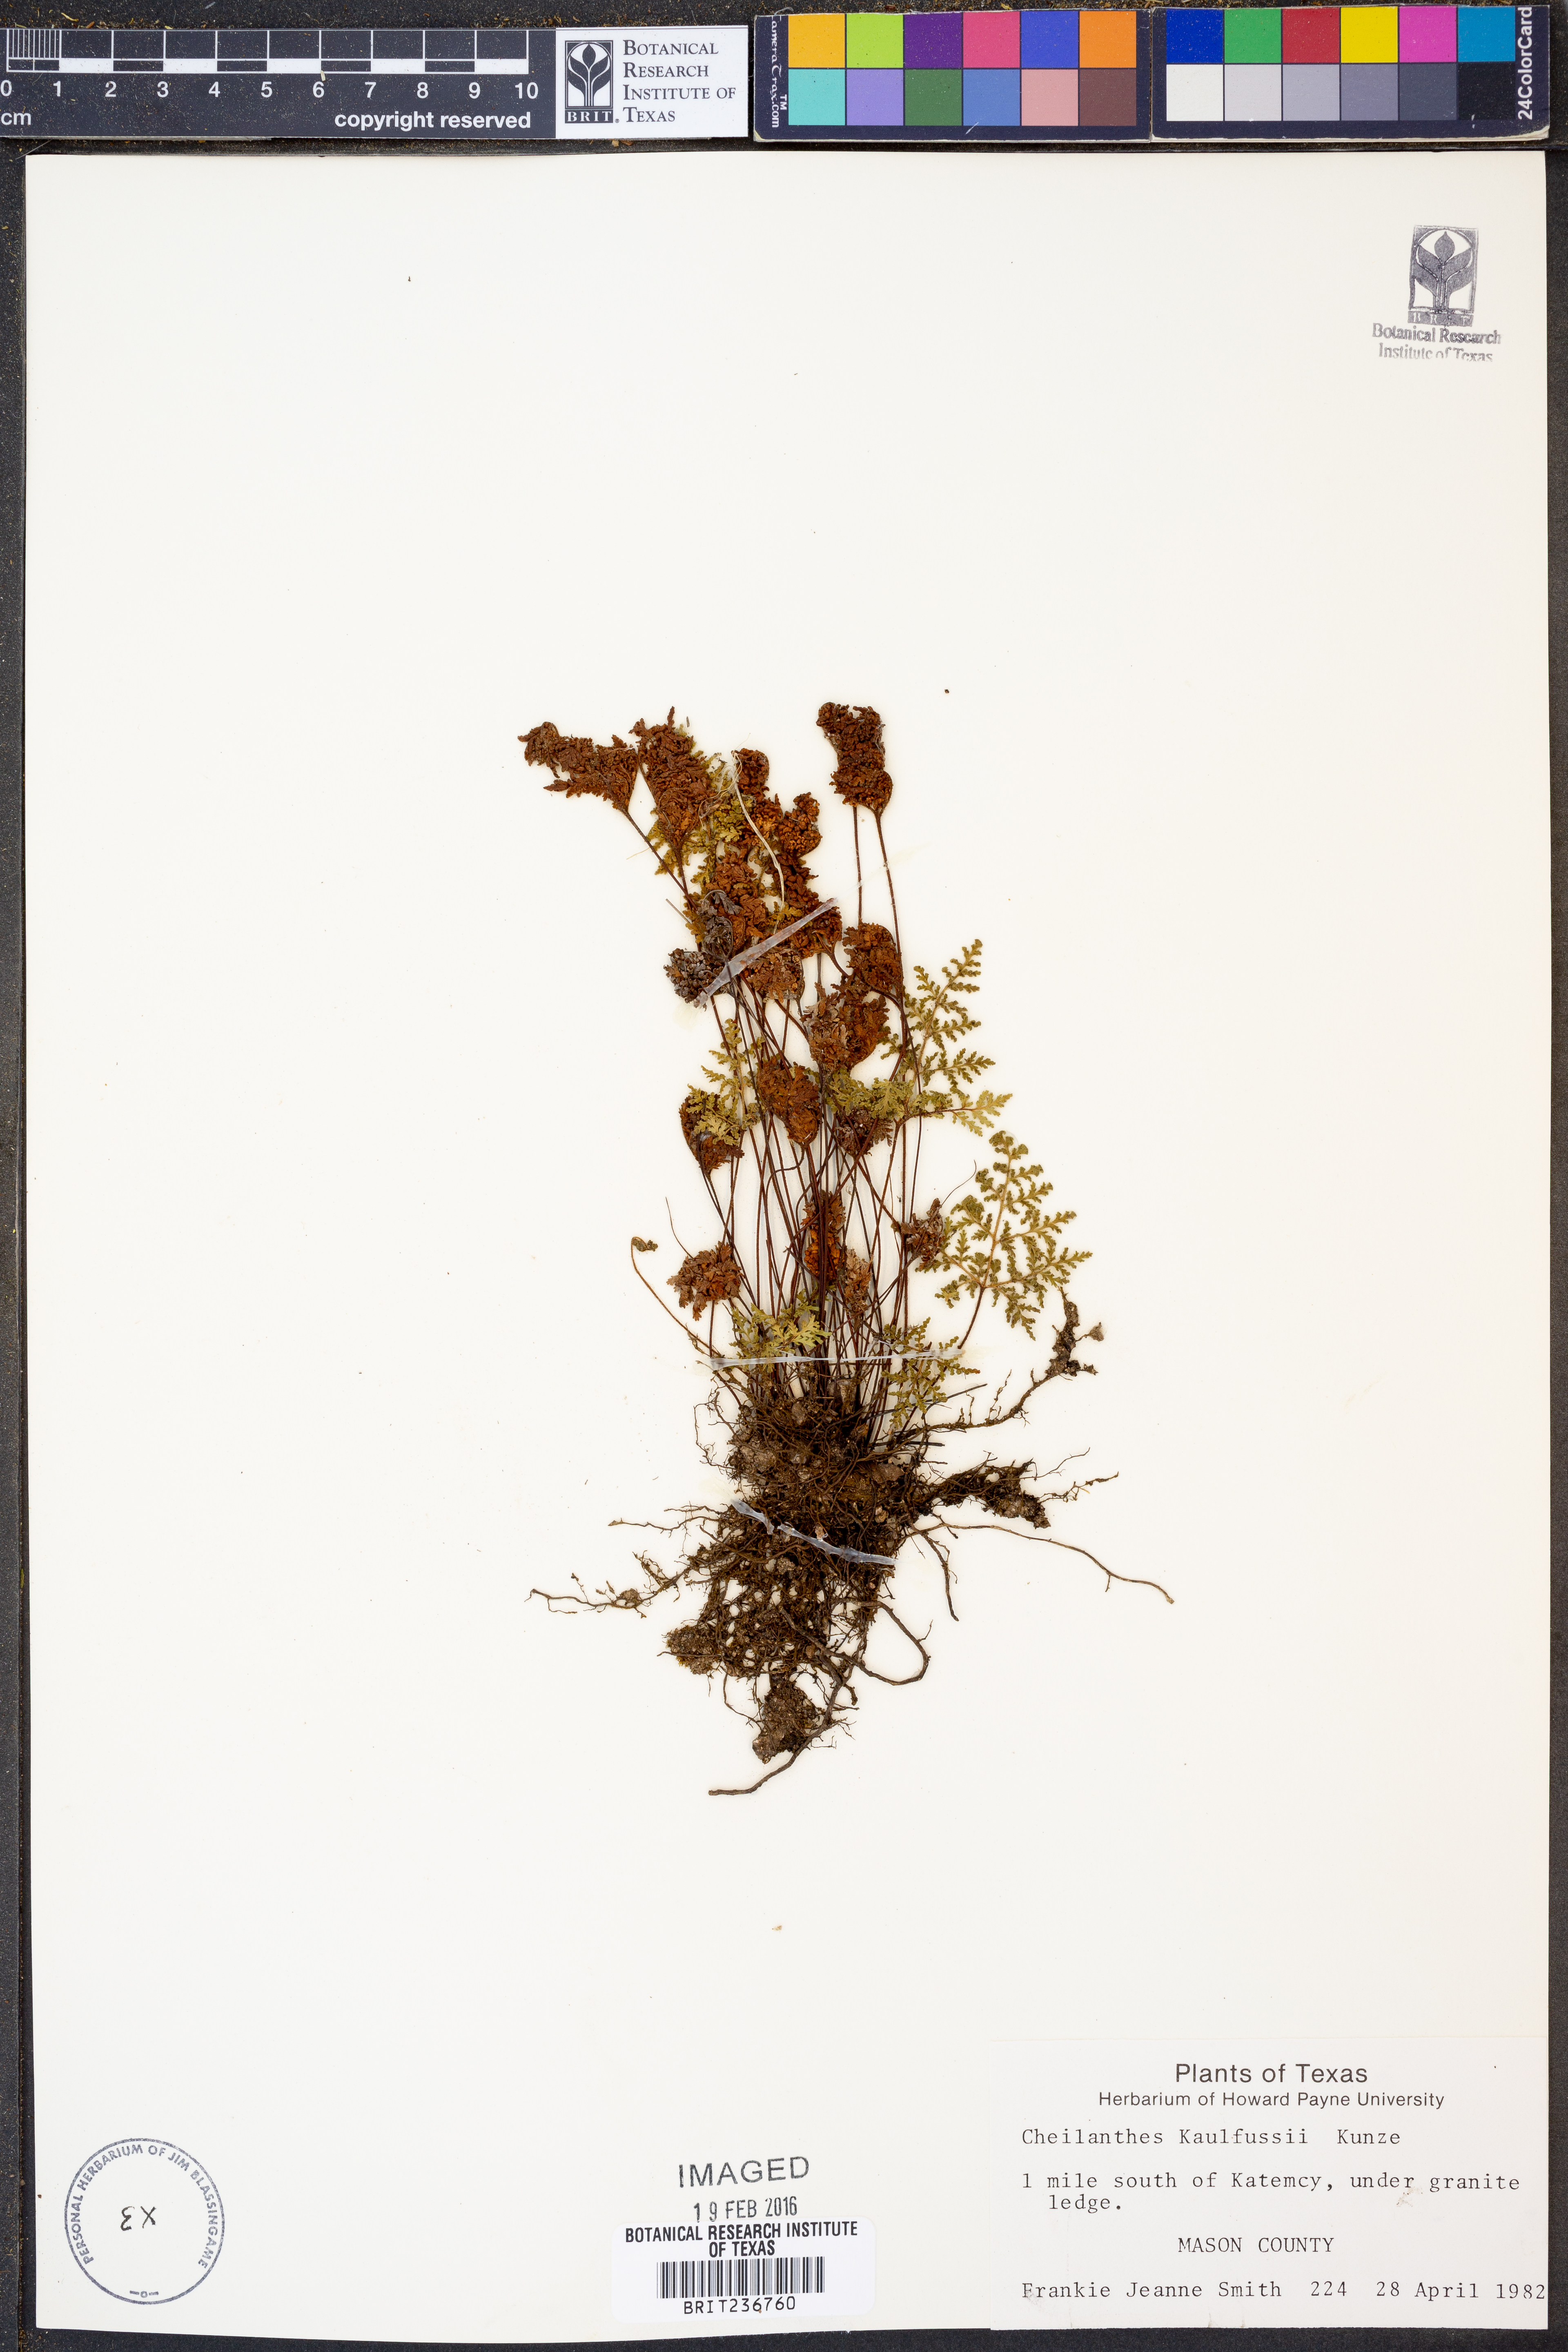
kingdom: Plantae
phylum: Tracheophyta
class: Polypodiopsida
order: Polypodiales
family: Pteridaceae
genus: Gaga
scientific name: Gaga kaulfussii
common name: Glandular lip fern
